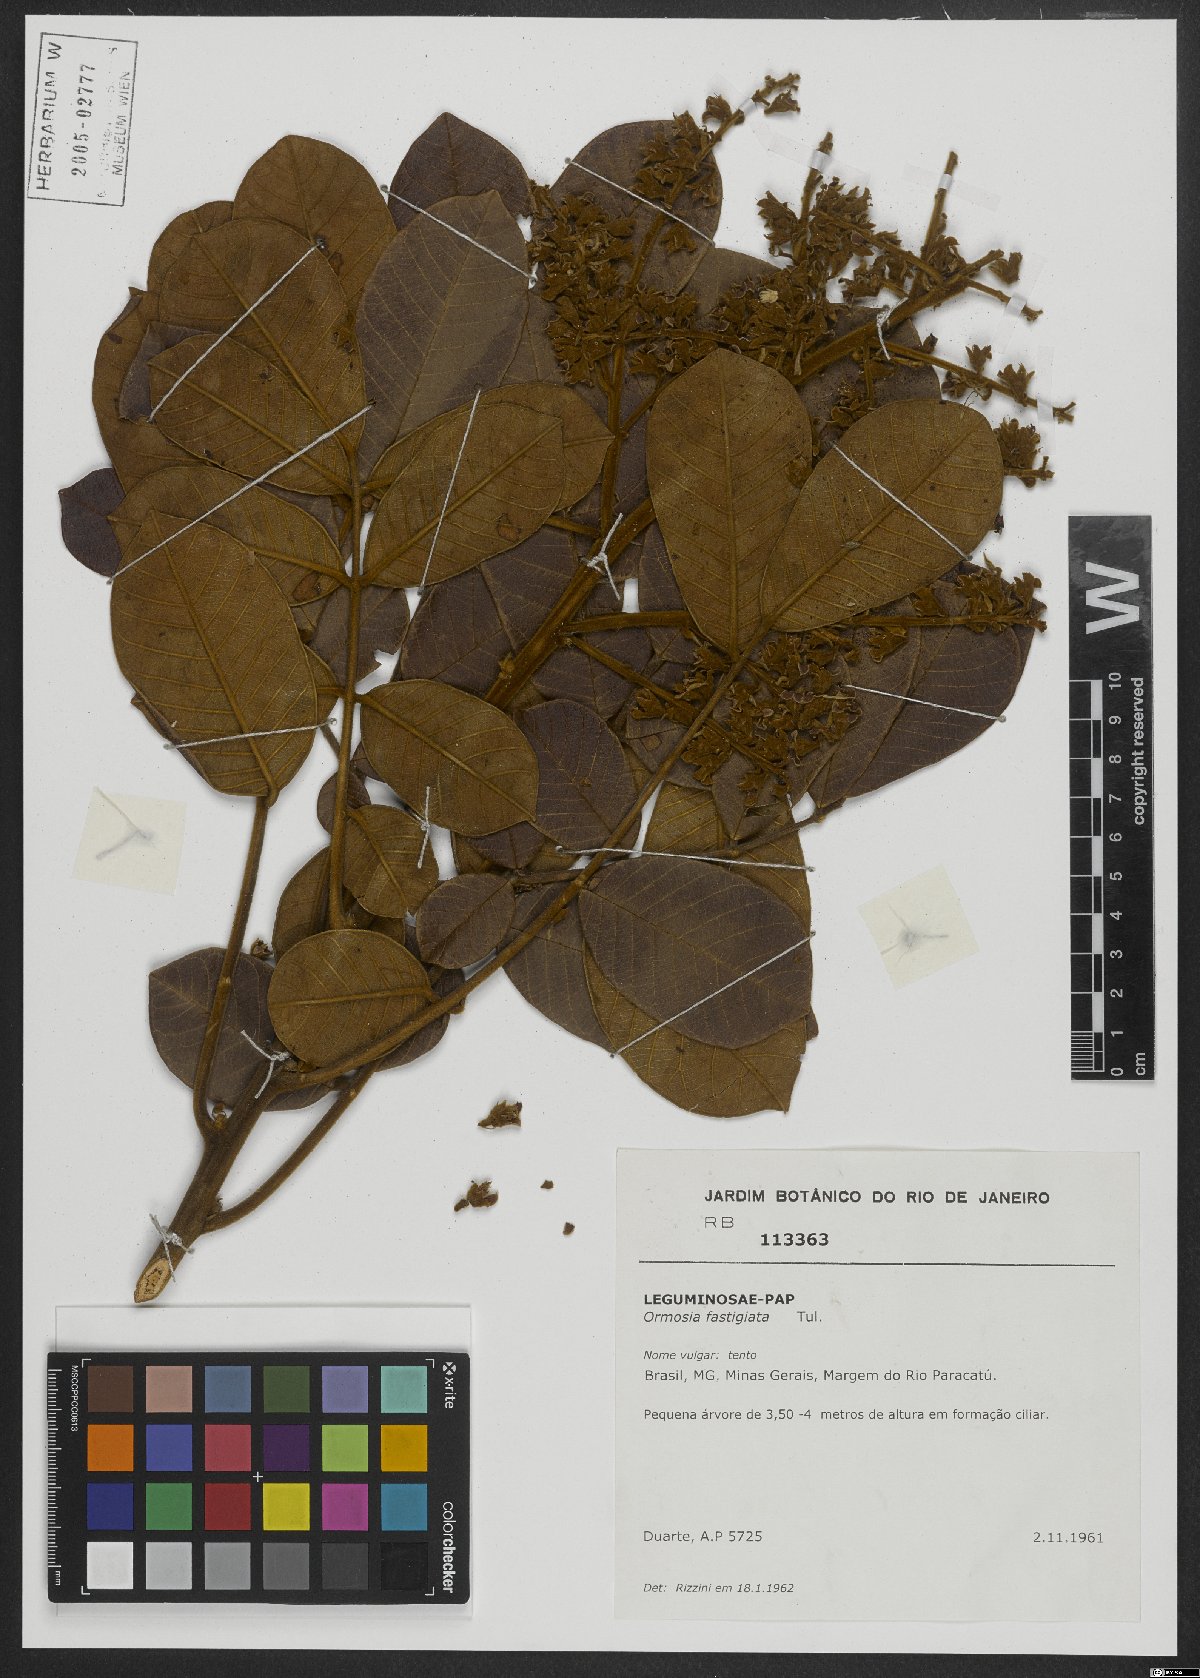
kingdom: Plantae
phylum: Tracheophyta
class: Magnoliopsida
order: Fabales
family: Fabaceae
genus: Ormosia
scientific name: Ormosia fastigiata
